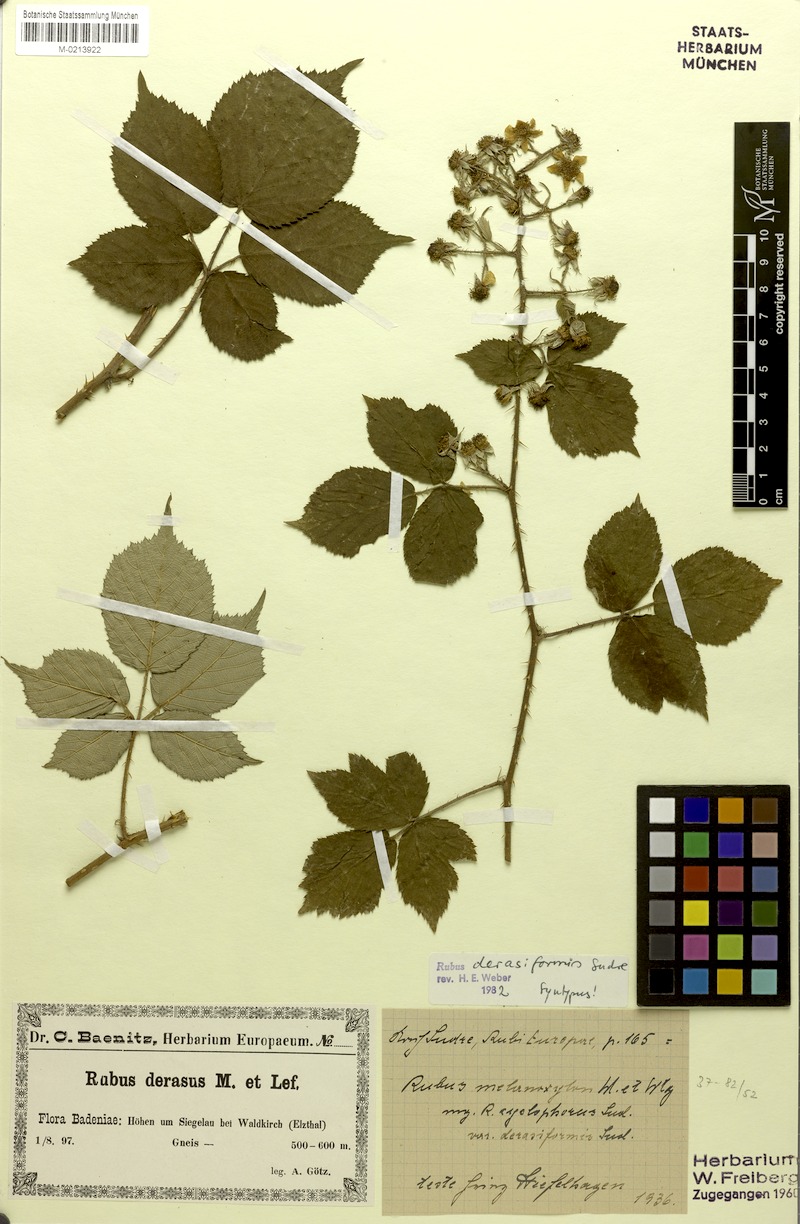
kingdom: Plantae
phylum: Tracheophyta
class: Magnoliopsida
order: Rosales
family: Rosaceae
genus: Rubus
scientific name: Rubus melanoxylon
